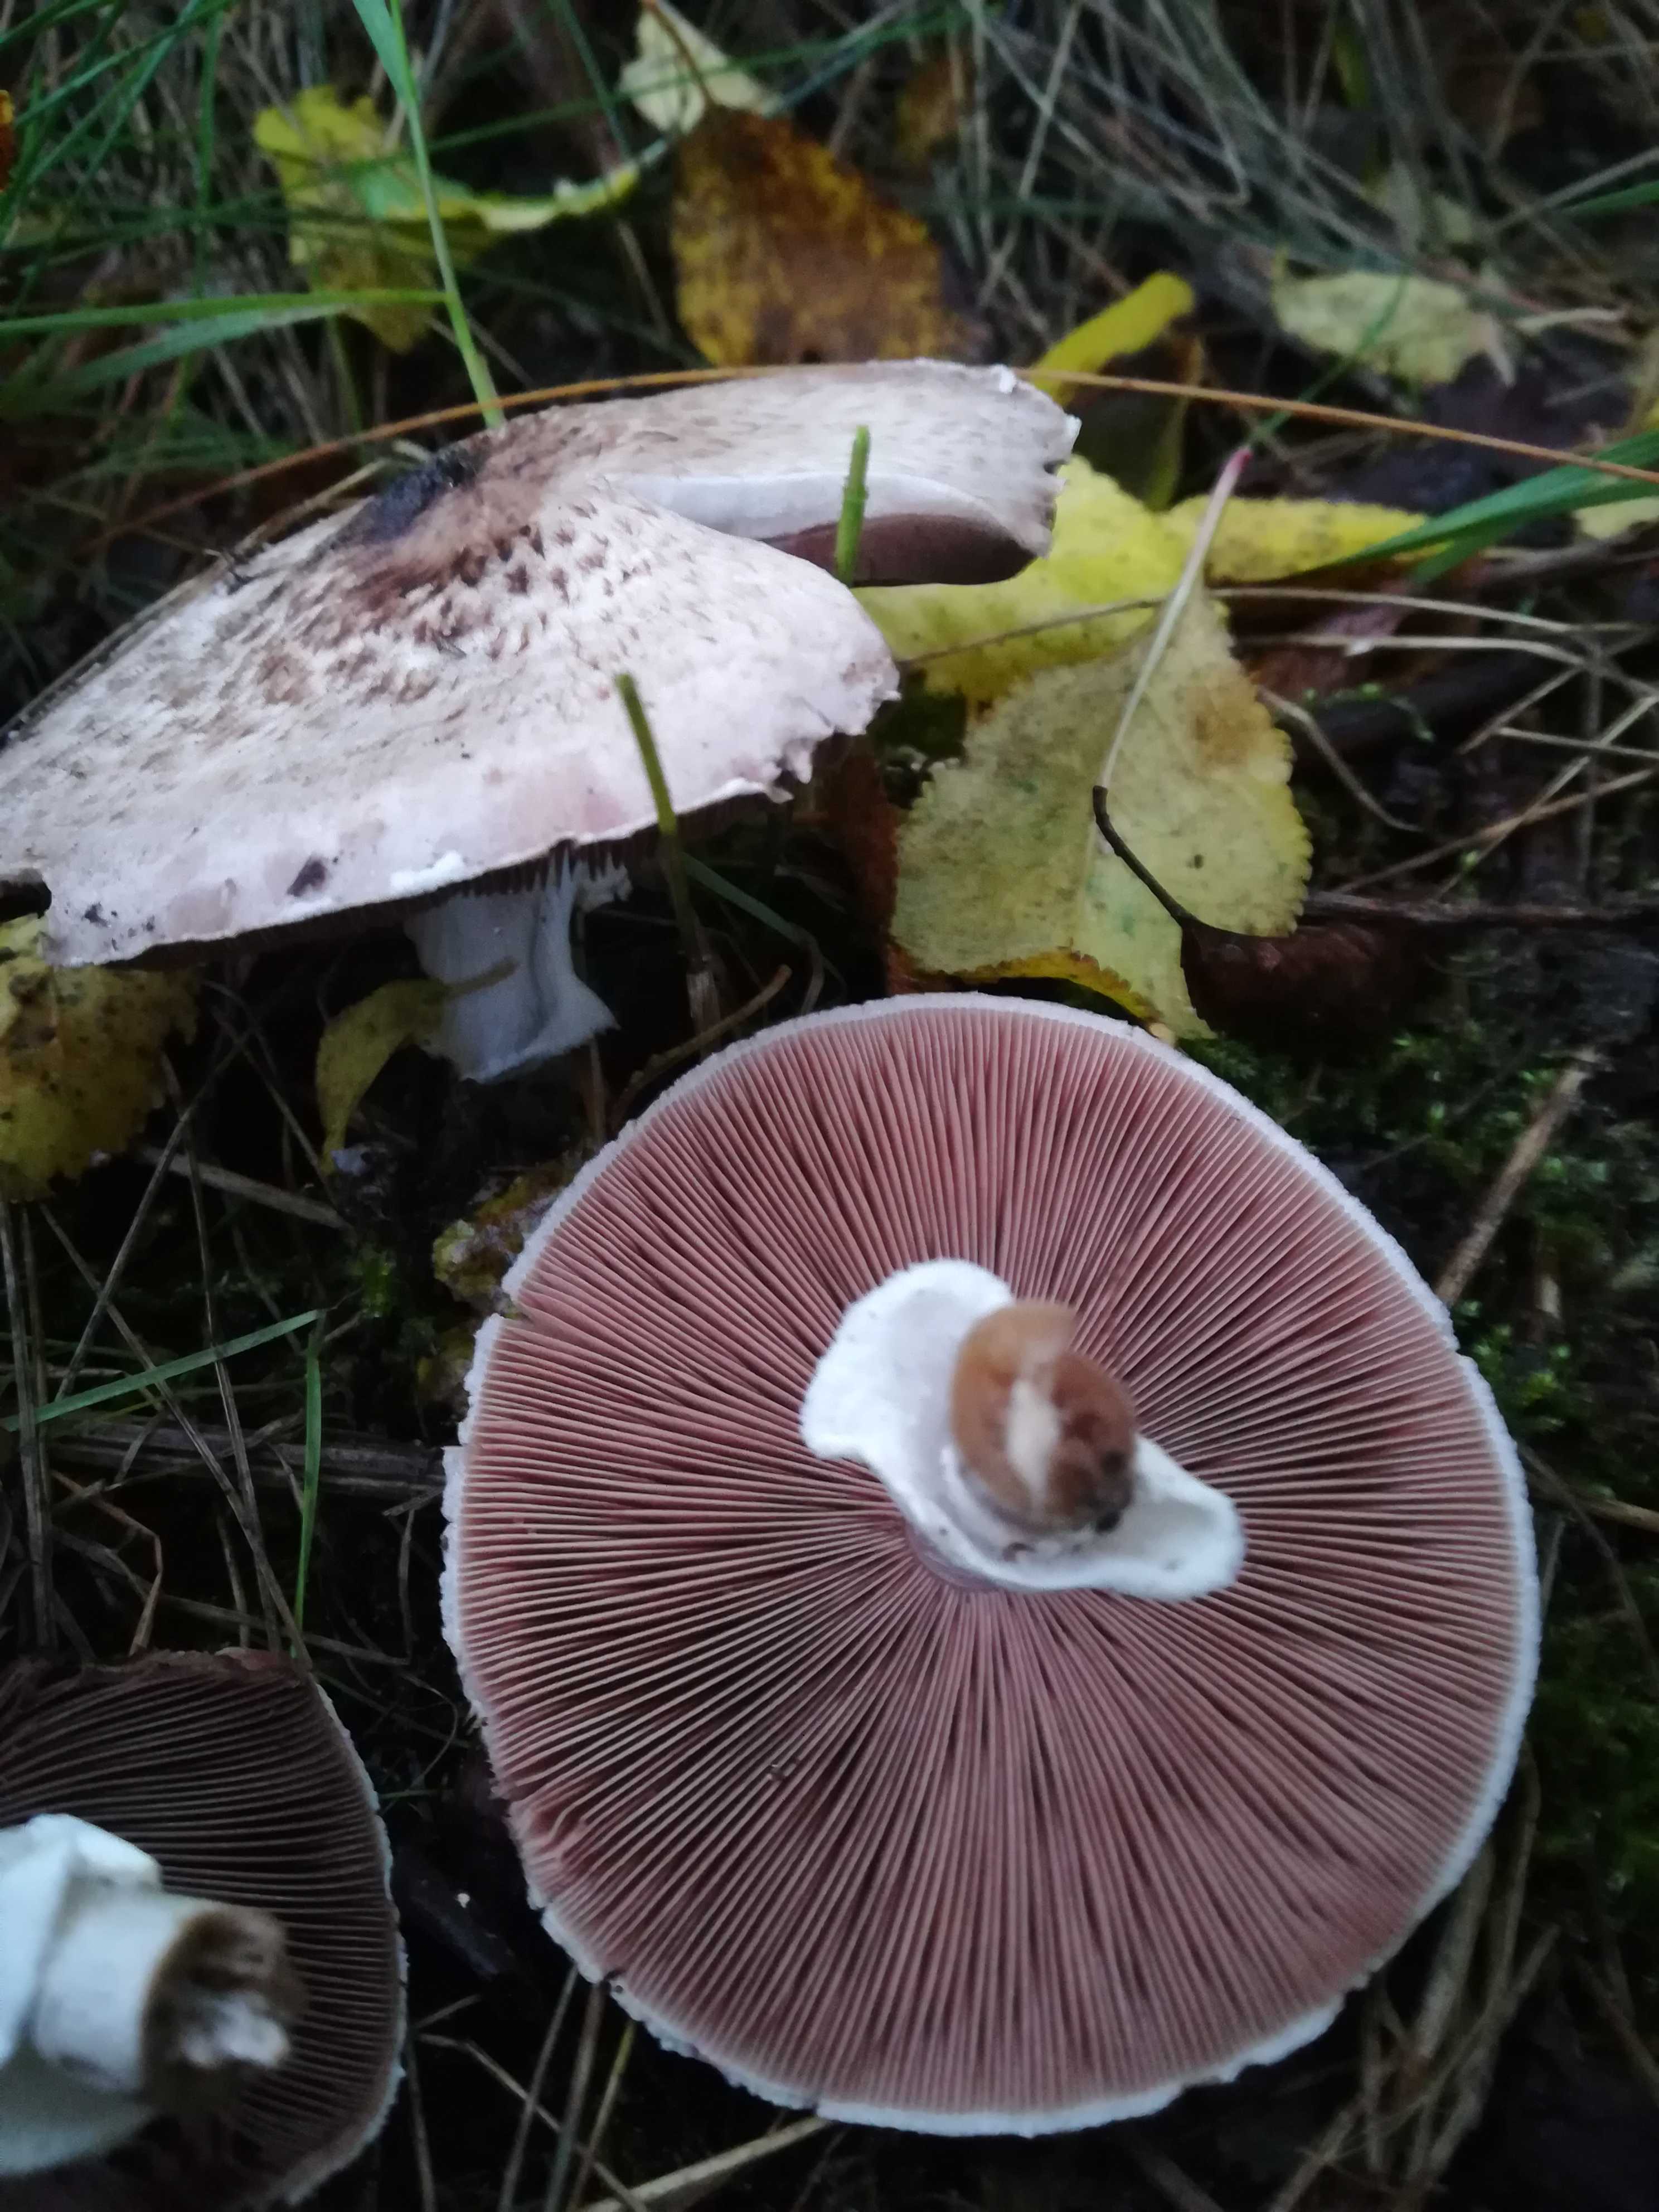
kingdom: Fungi
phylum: Basidiomycota
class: Agaricomycetes
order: Agaricales
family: Agaricaceae
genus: Agaricus
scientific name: Agaricus impudicus
